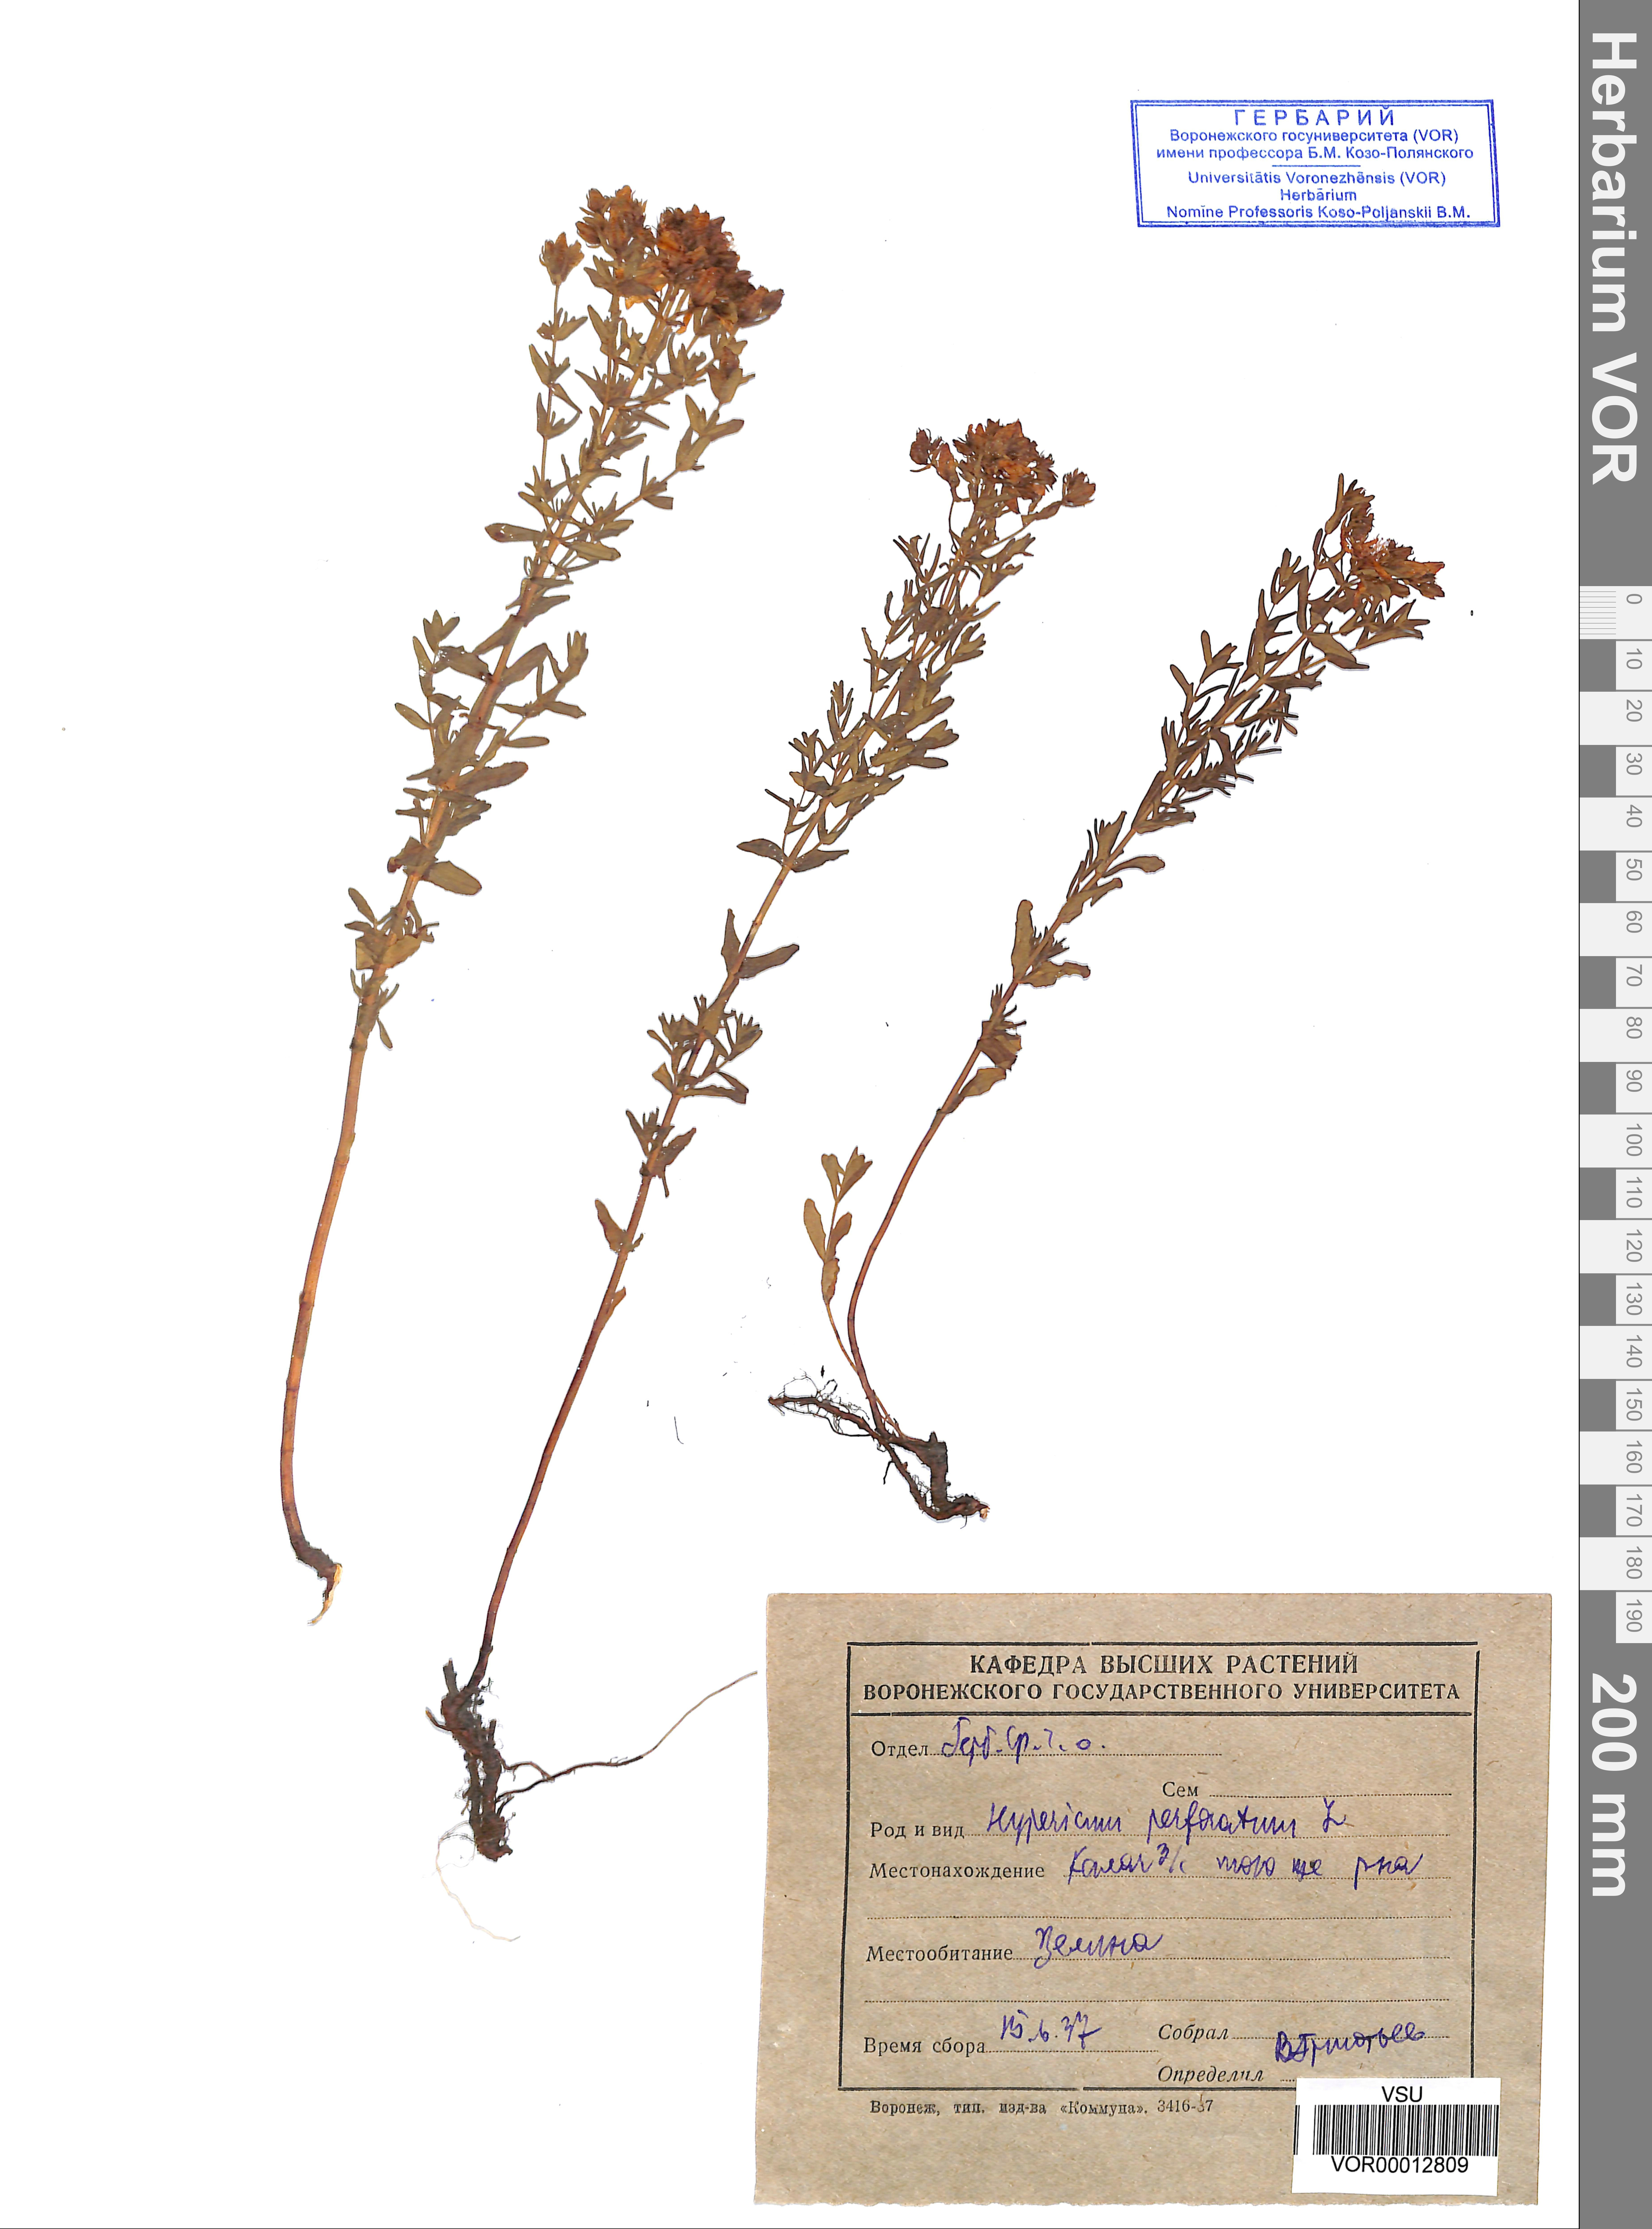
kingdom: Plantae
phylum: Tracheophyta
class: Magnoliopsida
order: Malpighiales
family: Hypericaceae
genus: Hypericum
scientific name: Hypericum perforatum
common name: Common st. johnswort
